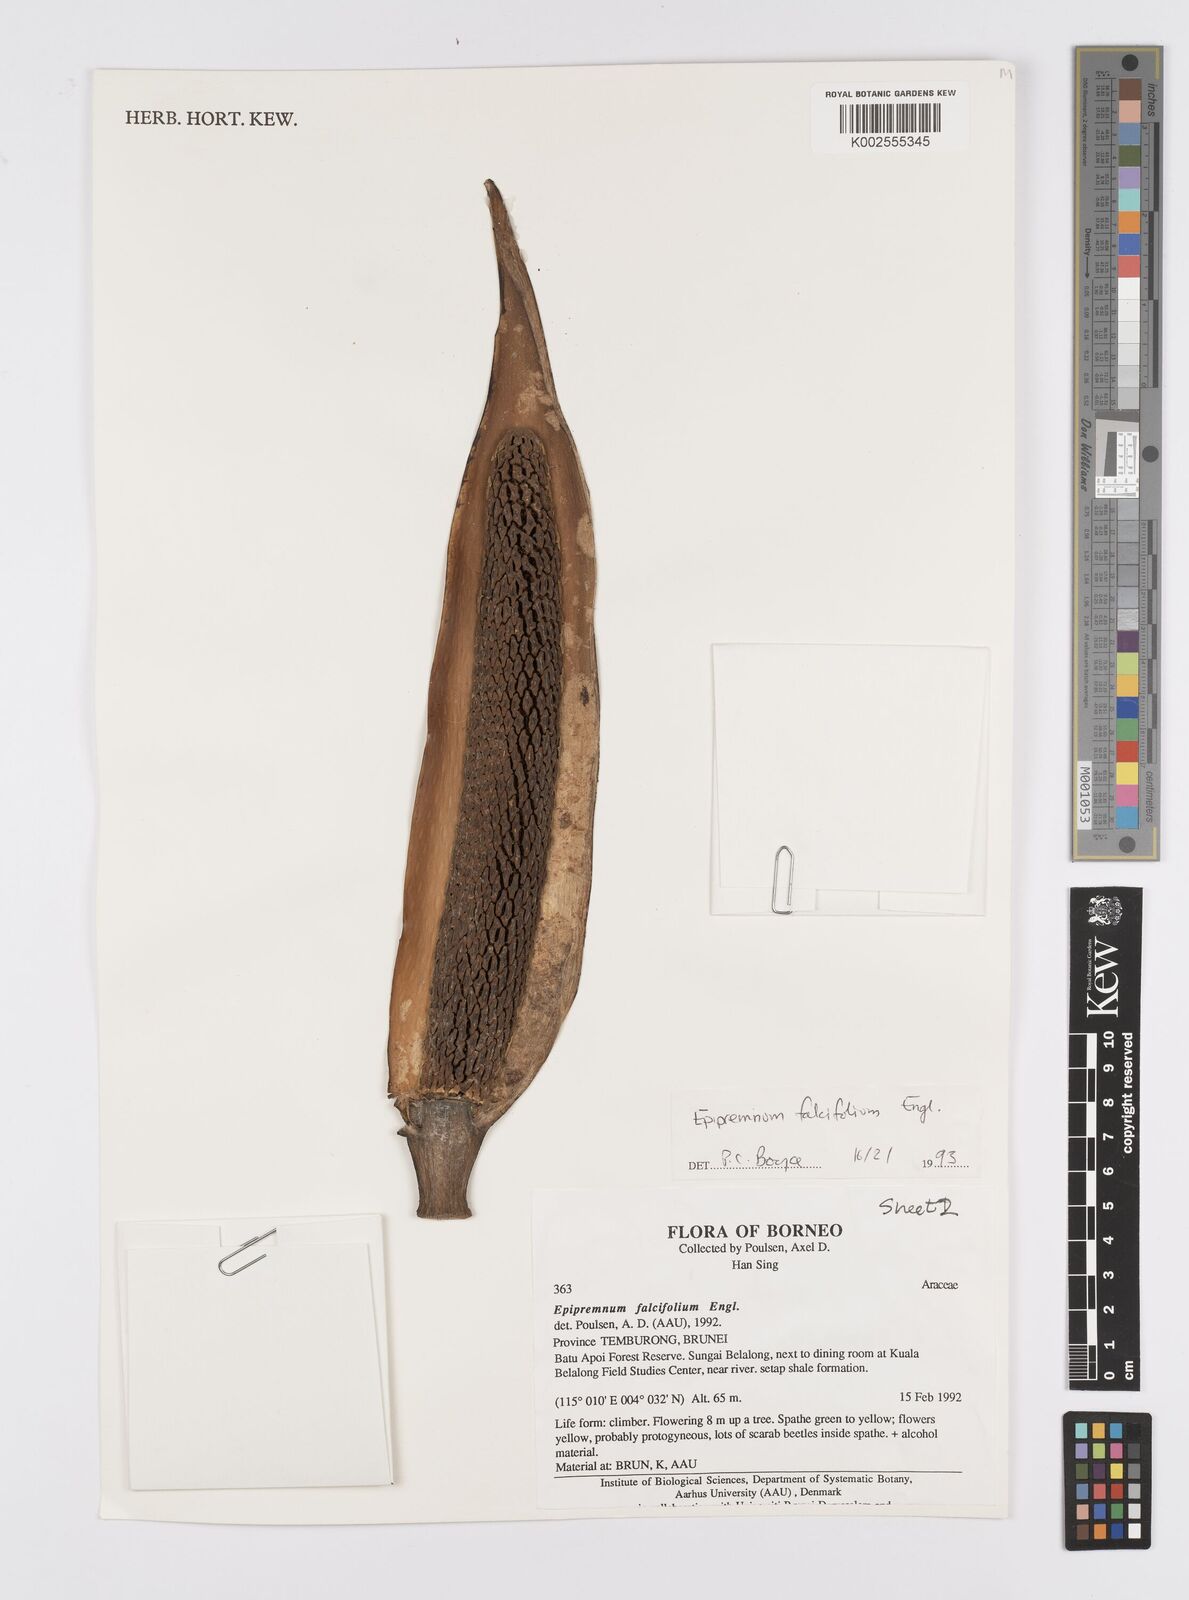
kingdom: Plantae
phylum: Tracheophyta
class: Liliopsida
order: Alismatales
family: Araceae
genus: Epipremnum
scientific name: Epipremnum falcifolium
